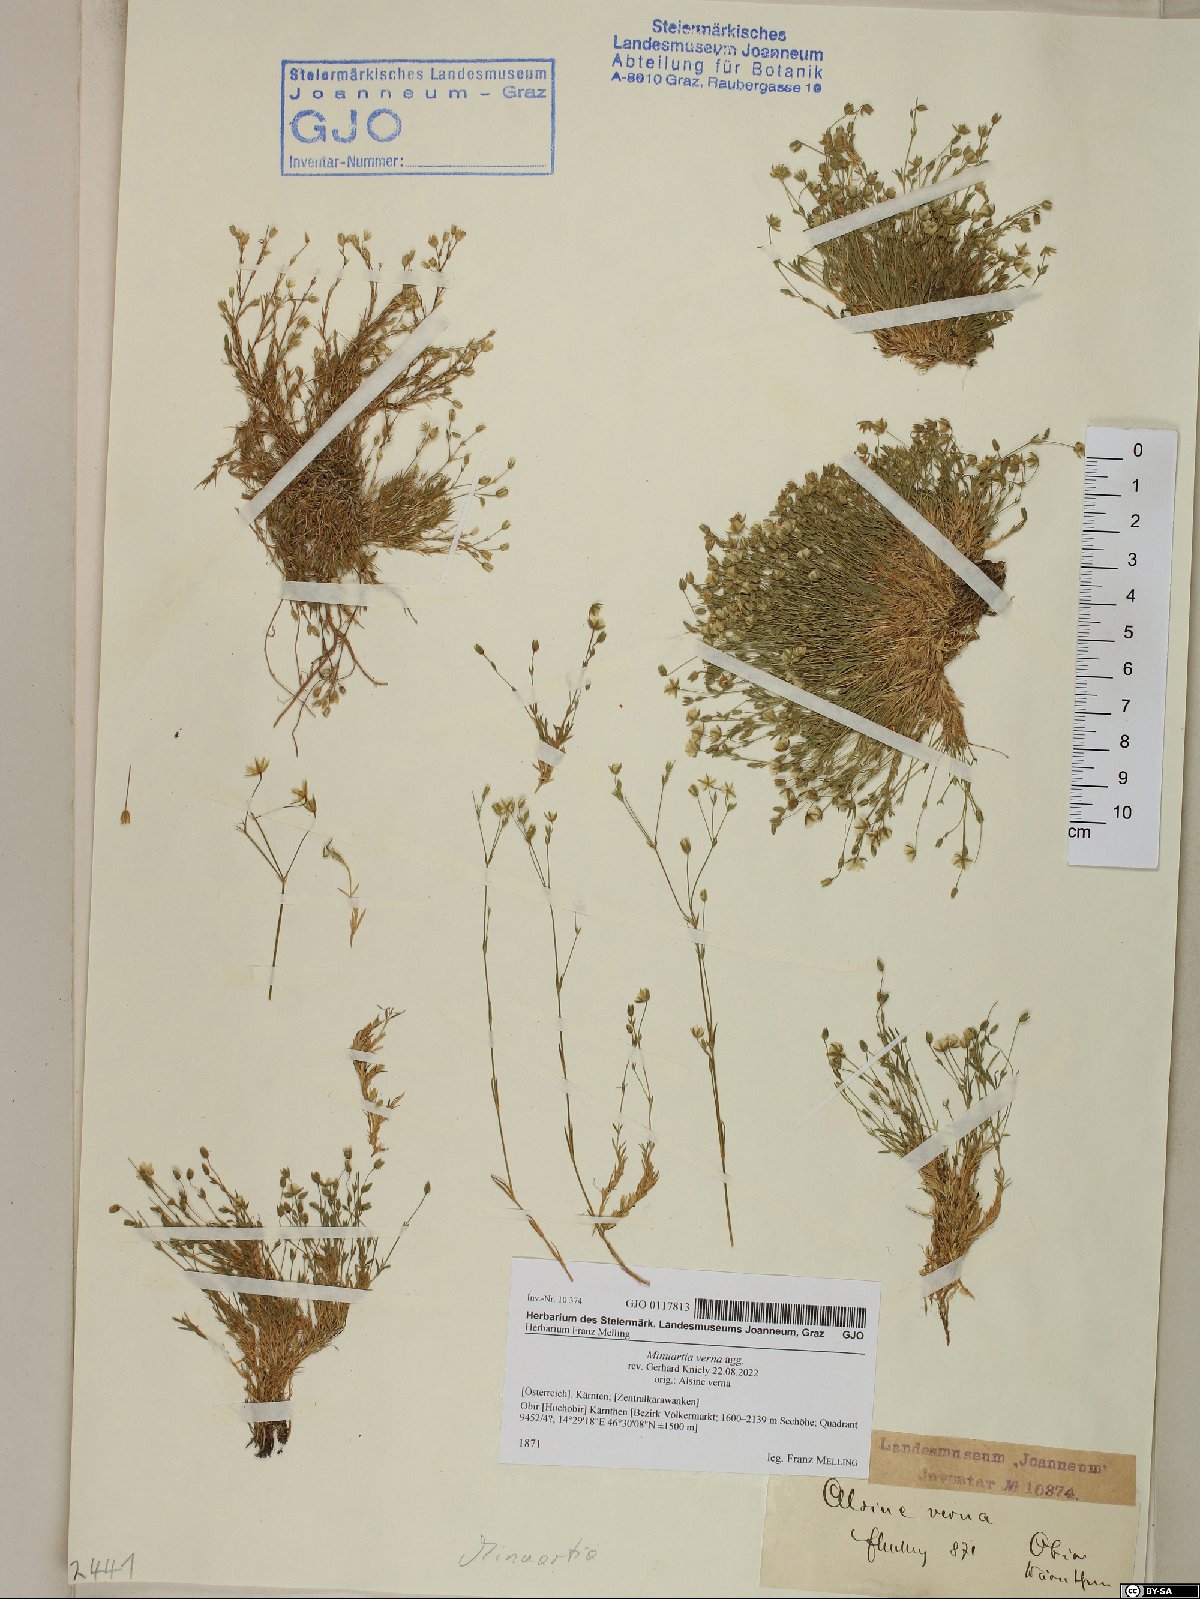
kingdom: Plantae
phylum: Tracheophyta
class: Magnoliopsida
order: Caryophyllales
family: Caryophyllaceae
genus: Sabulina
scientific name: Sabulina verna
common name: Spring sandwort
